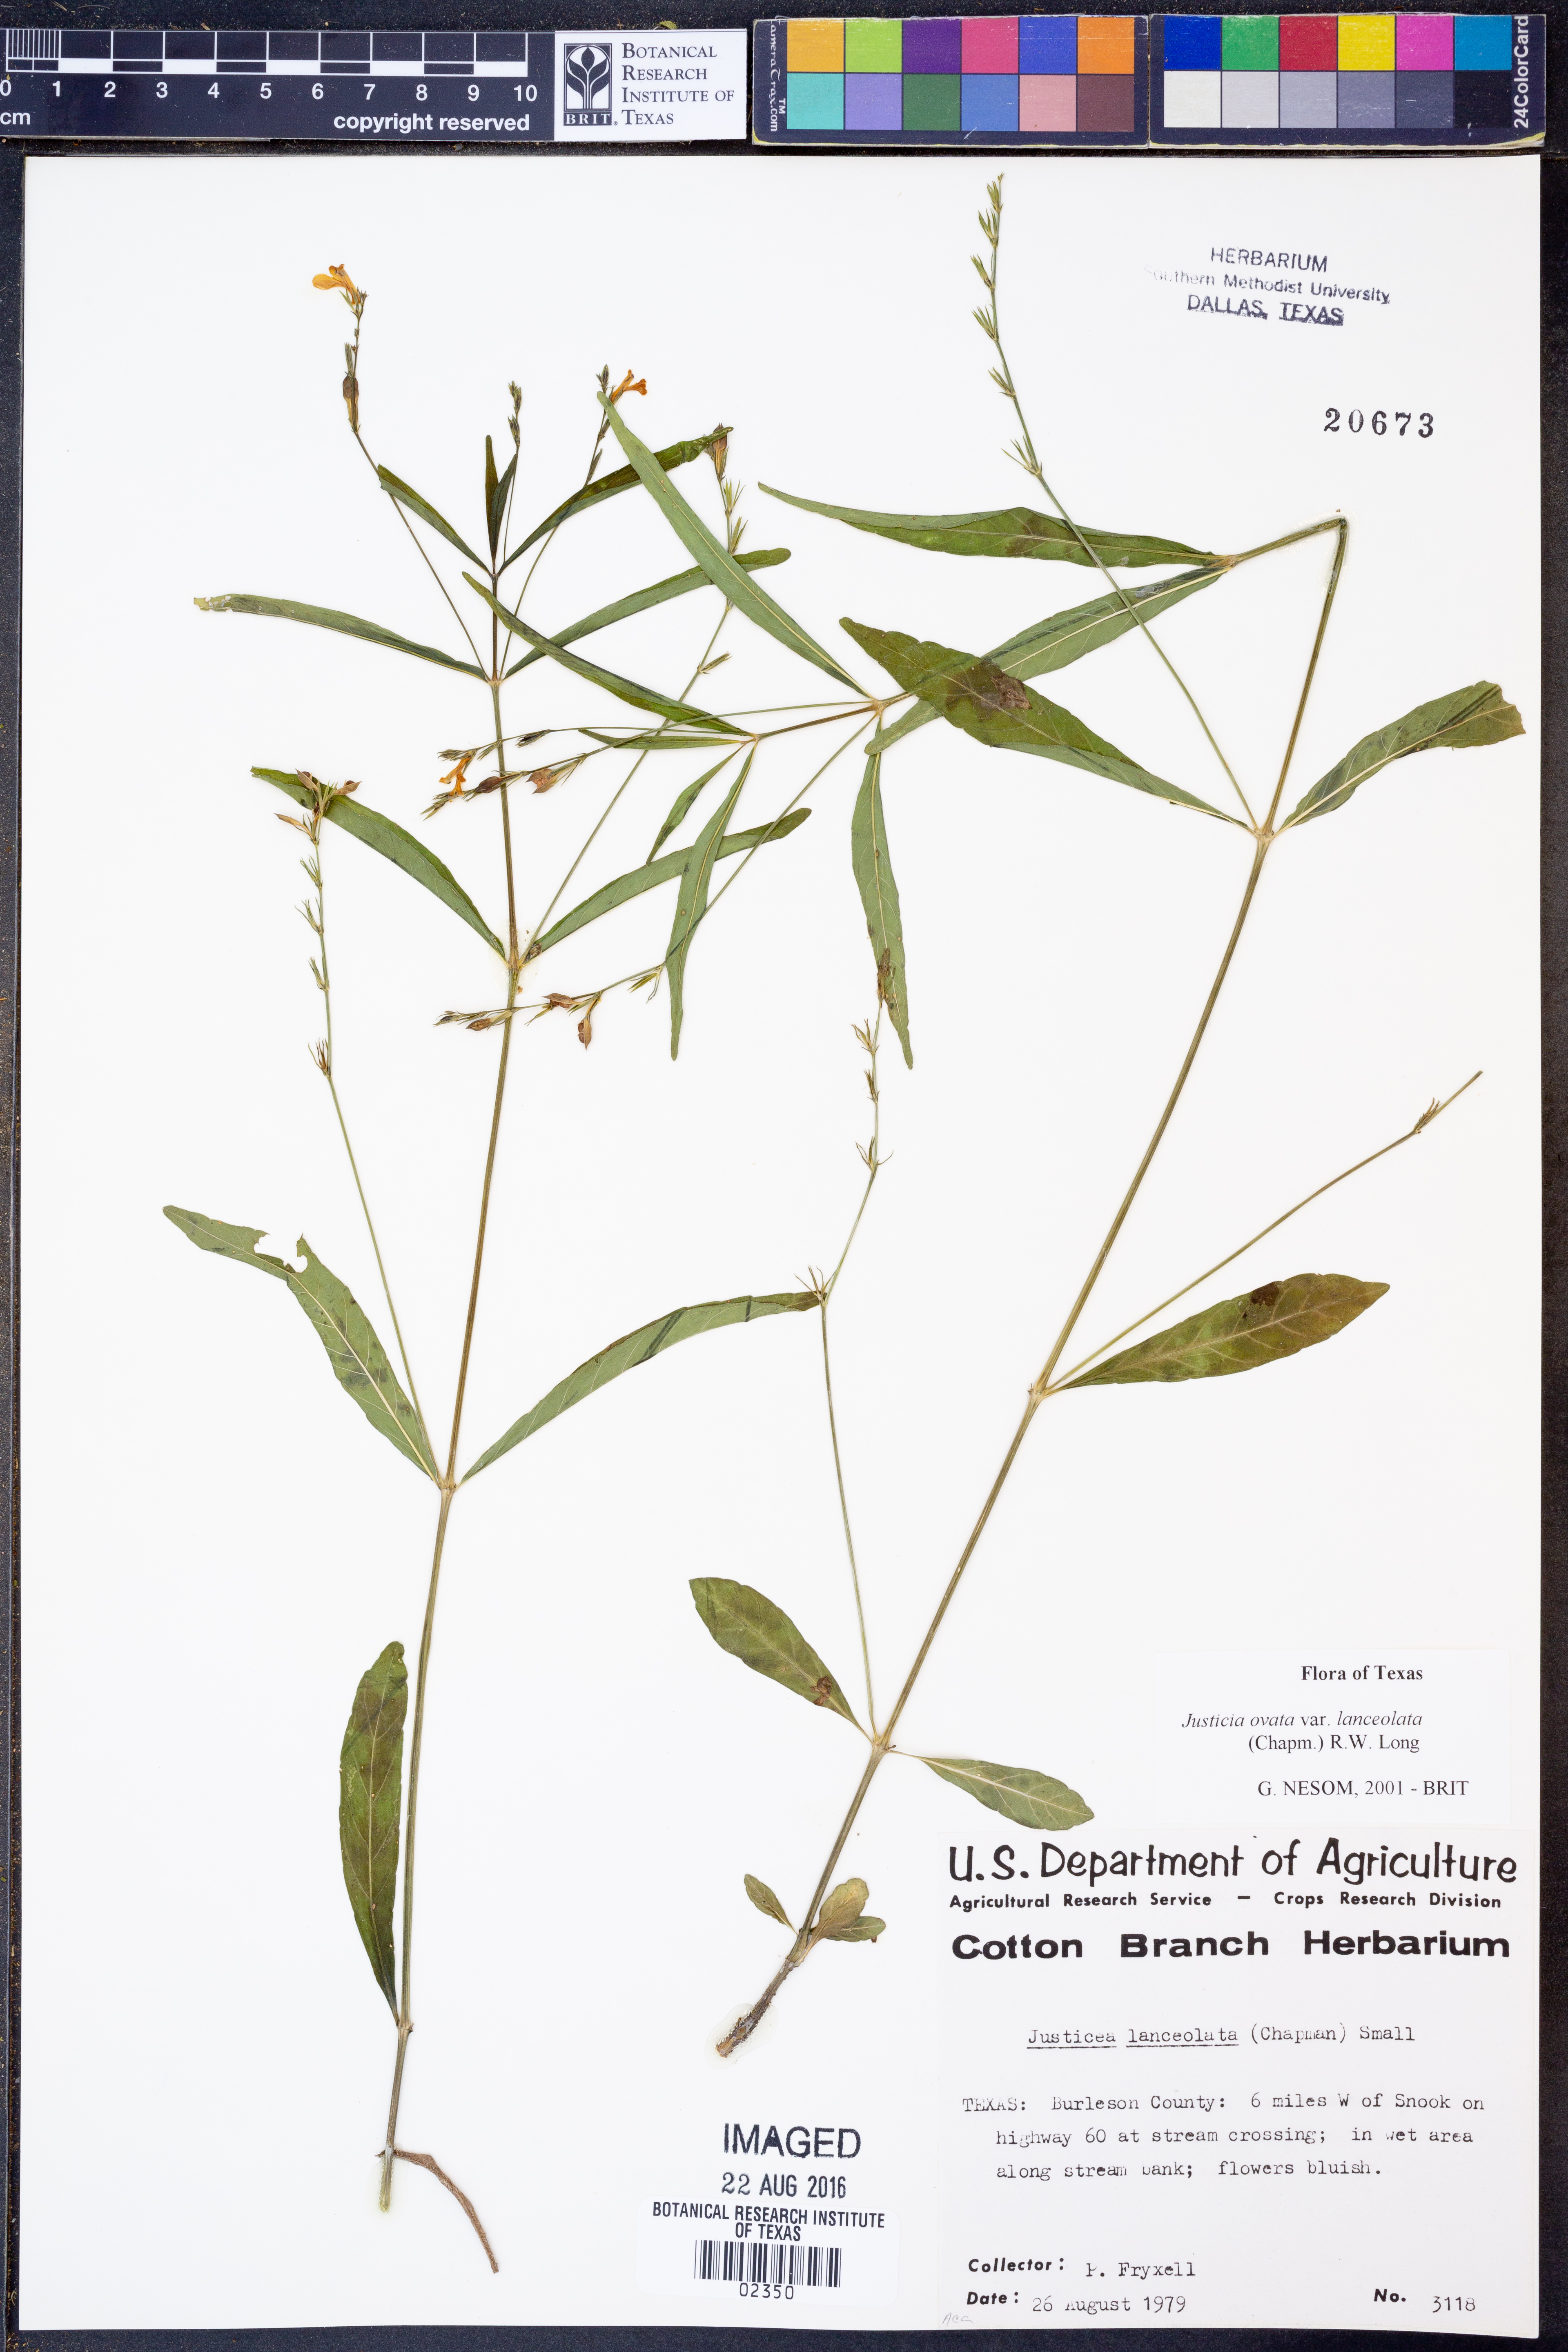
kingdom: Plantae
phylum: Tracheophyta
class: Magnoliopsida
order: Lamiales
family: Acanthaceae
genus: Justicia
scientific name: Justicia lanceolata
